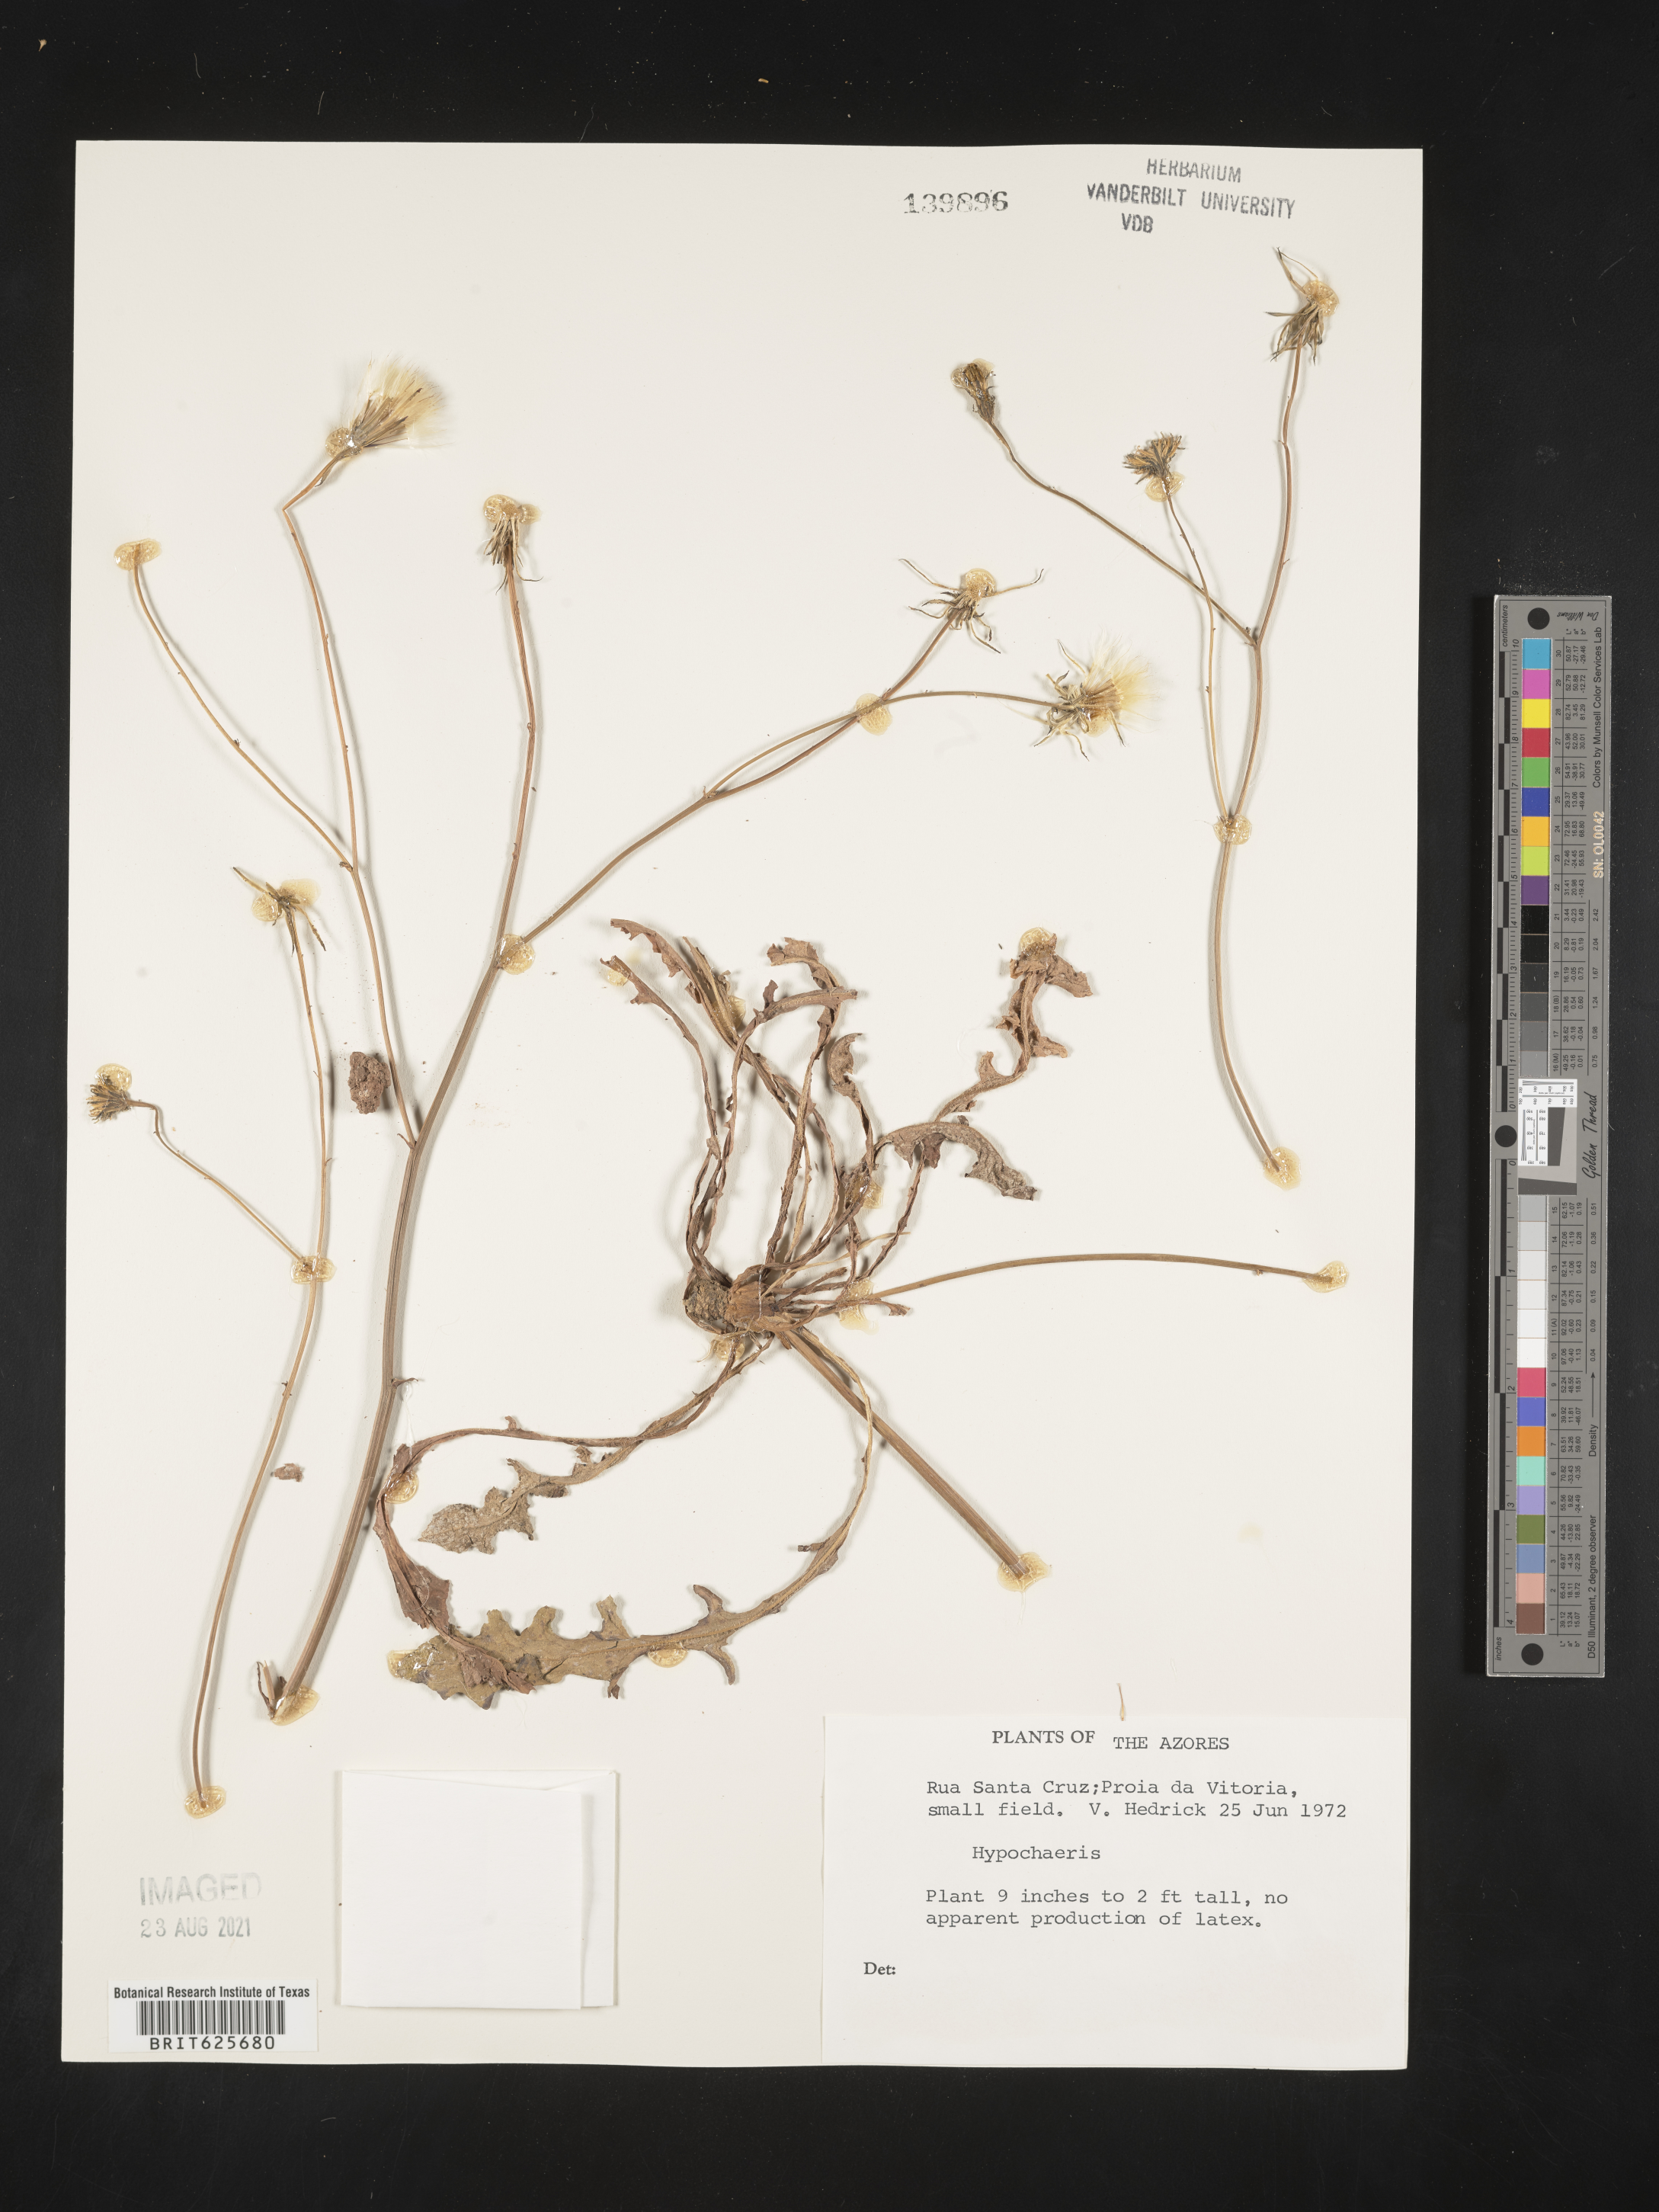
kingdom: Plantae
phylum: Tracheophyta
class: Magnoliopsida
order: Asterales
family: Asteraceae
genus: Hypochaeris
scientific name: Hypochaeris
